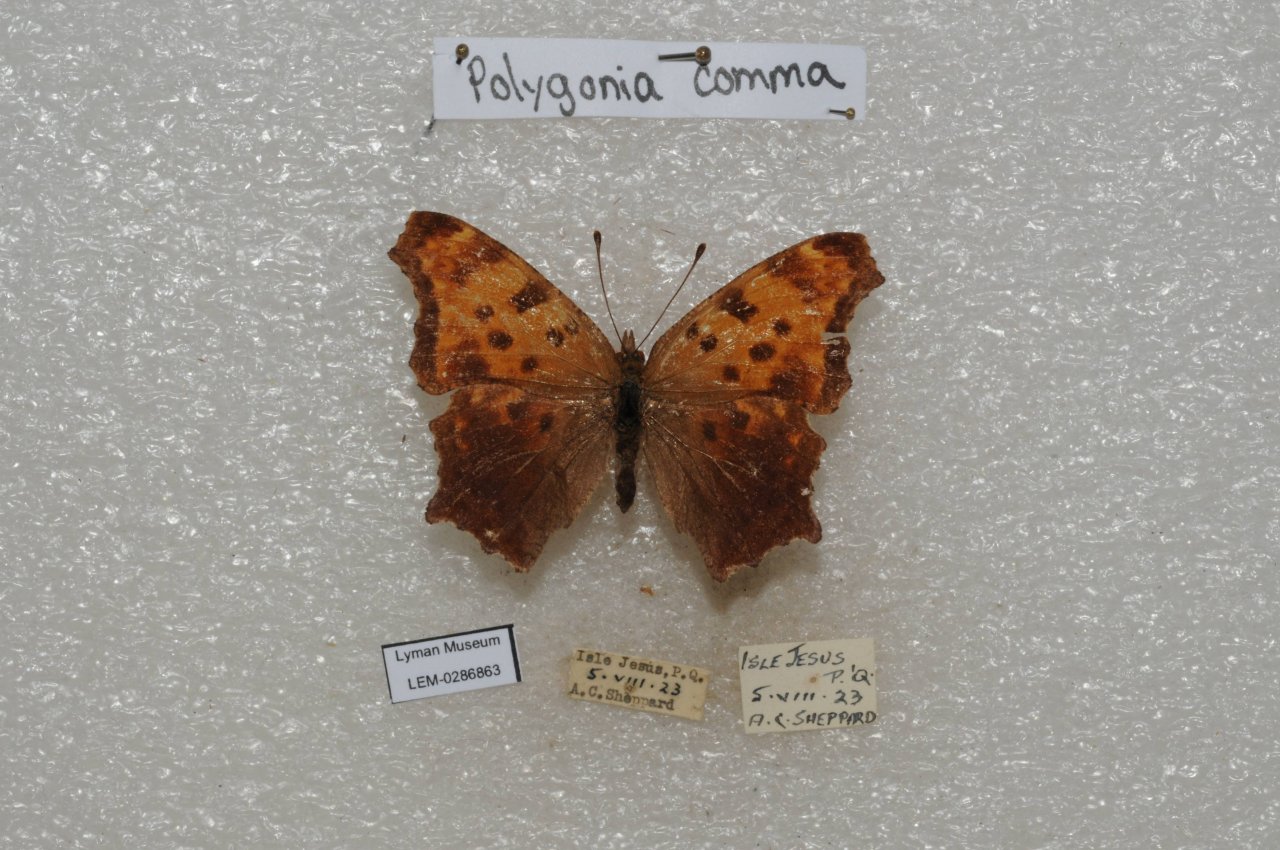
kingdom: Animalia
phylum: Arthropoda
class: Insecta
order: Lepidoptera
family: Nymphalidae
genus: Polygonia
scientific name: Polygonia comma
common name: Eastern Comma
